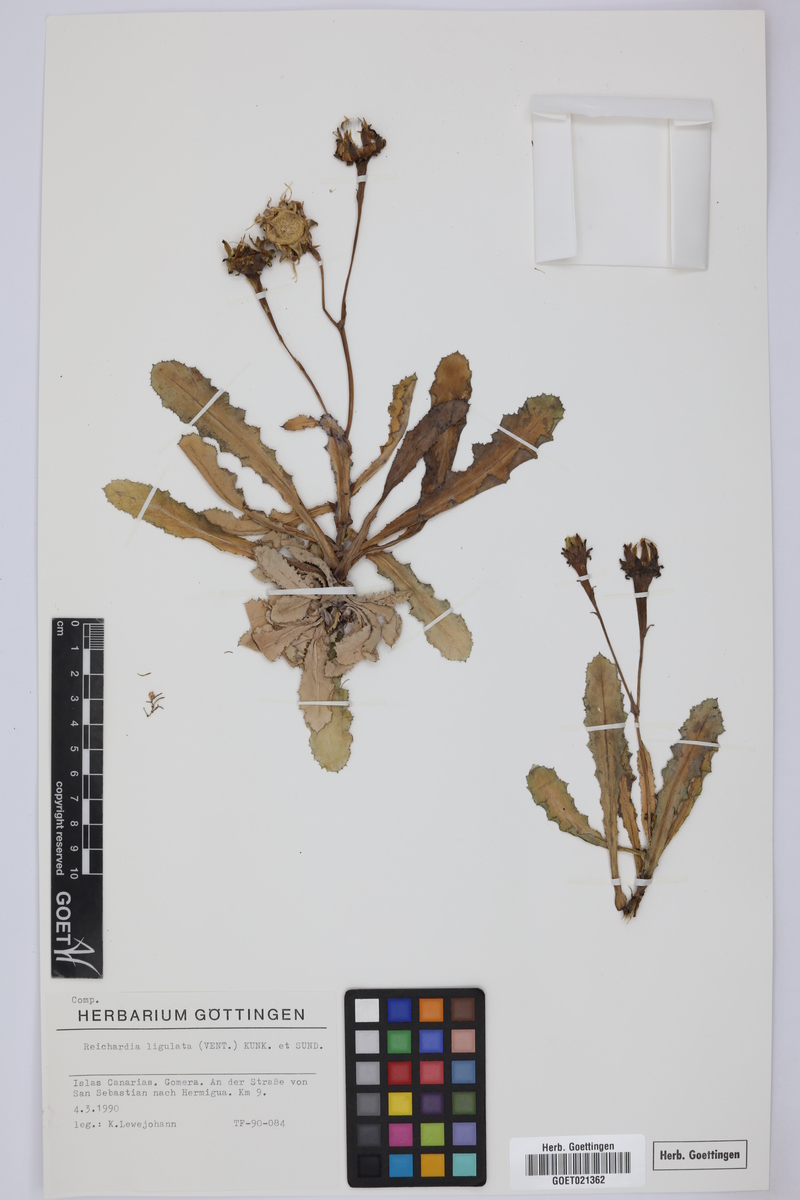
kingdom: Plantae
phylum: Tracheophyta
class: Magnoliopsida
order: Asterales
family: Asteraceae
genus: Reichardia
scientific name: Reichardia ligulata
